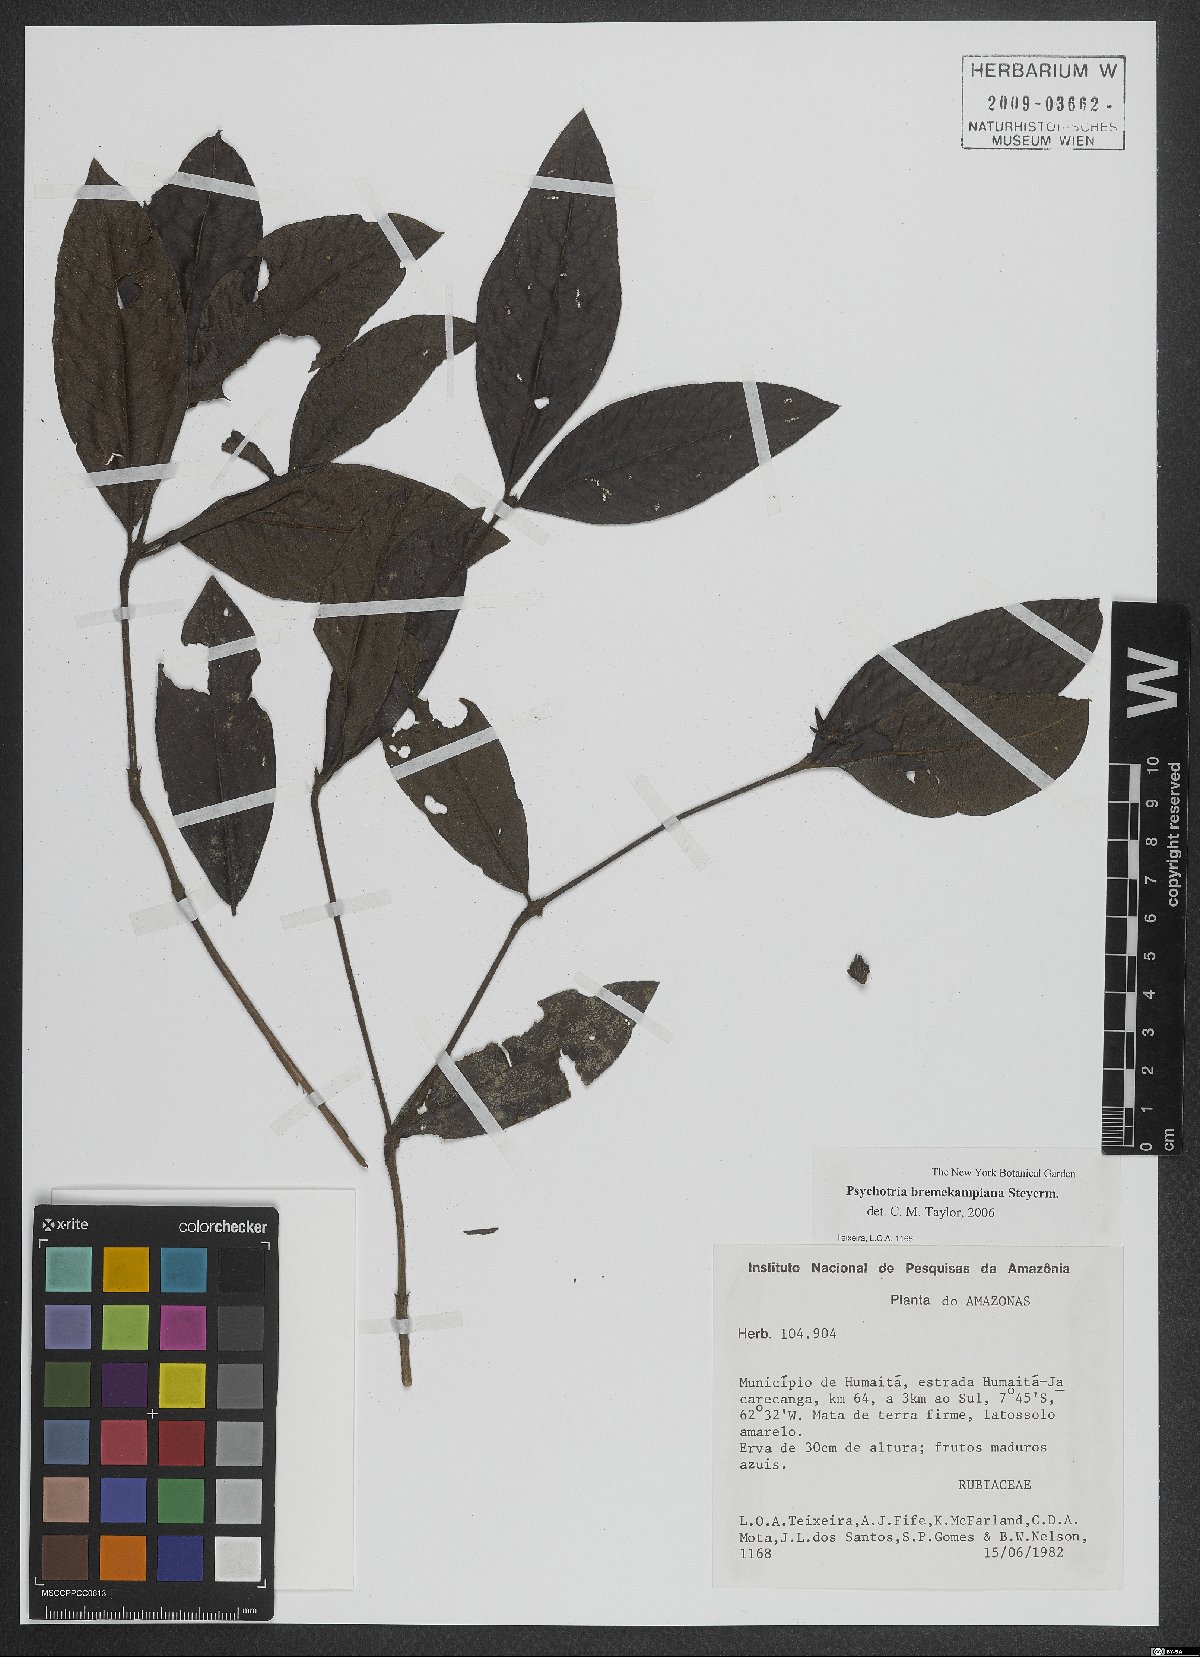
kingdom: Plantae
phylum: Tracheophyta
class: Magnoliopsida
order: Gentianales
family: Rubiaceae
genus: Palicourea
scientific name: Palicourea hirta
